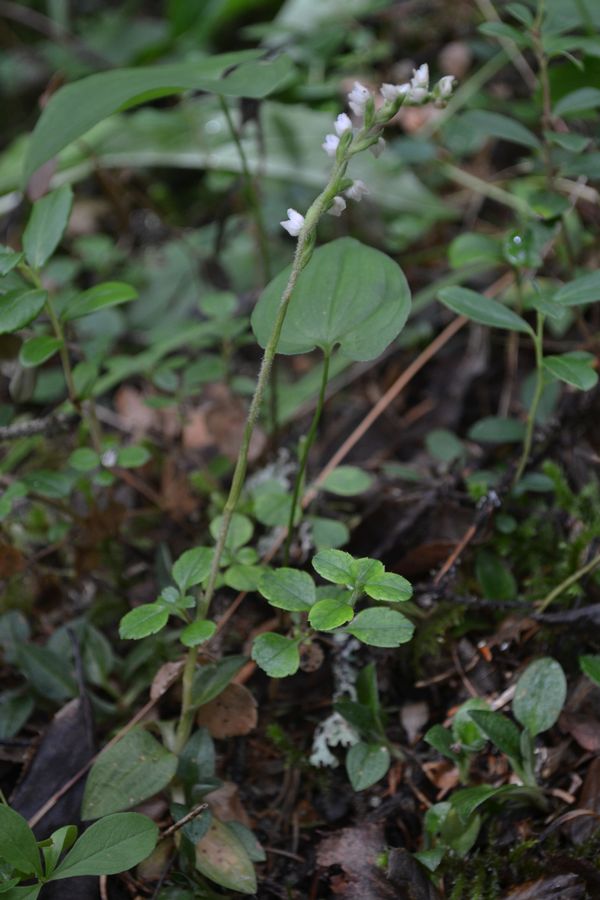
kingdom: Plantae
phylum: Tracheophyta
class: Liliopsida
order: Asparagales
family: Orchidaceae
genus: Goodyera
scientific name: Goodyera repens
